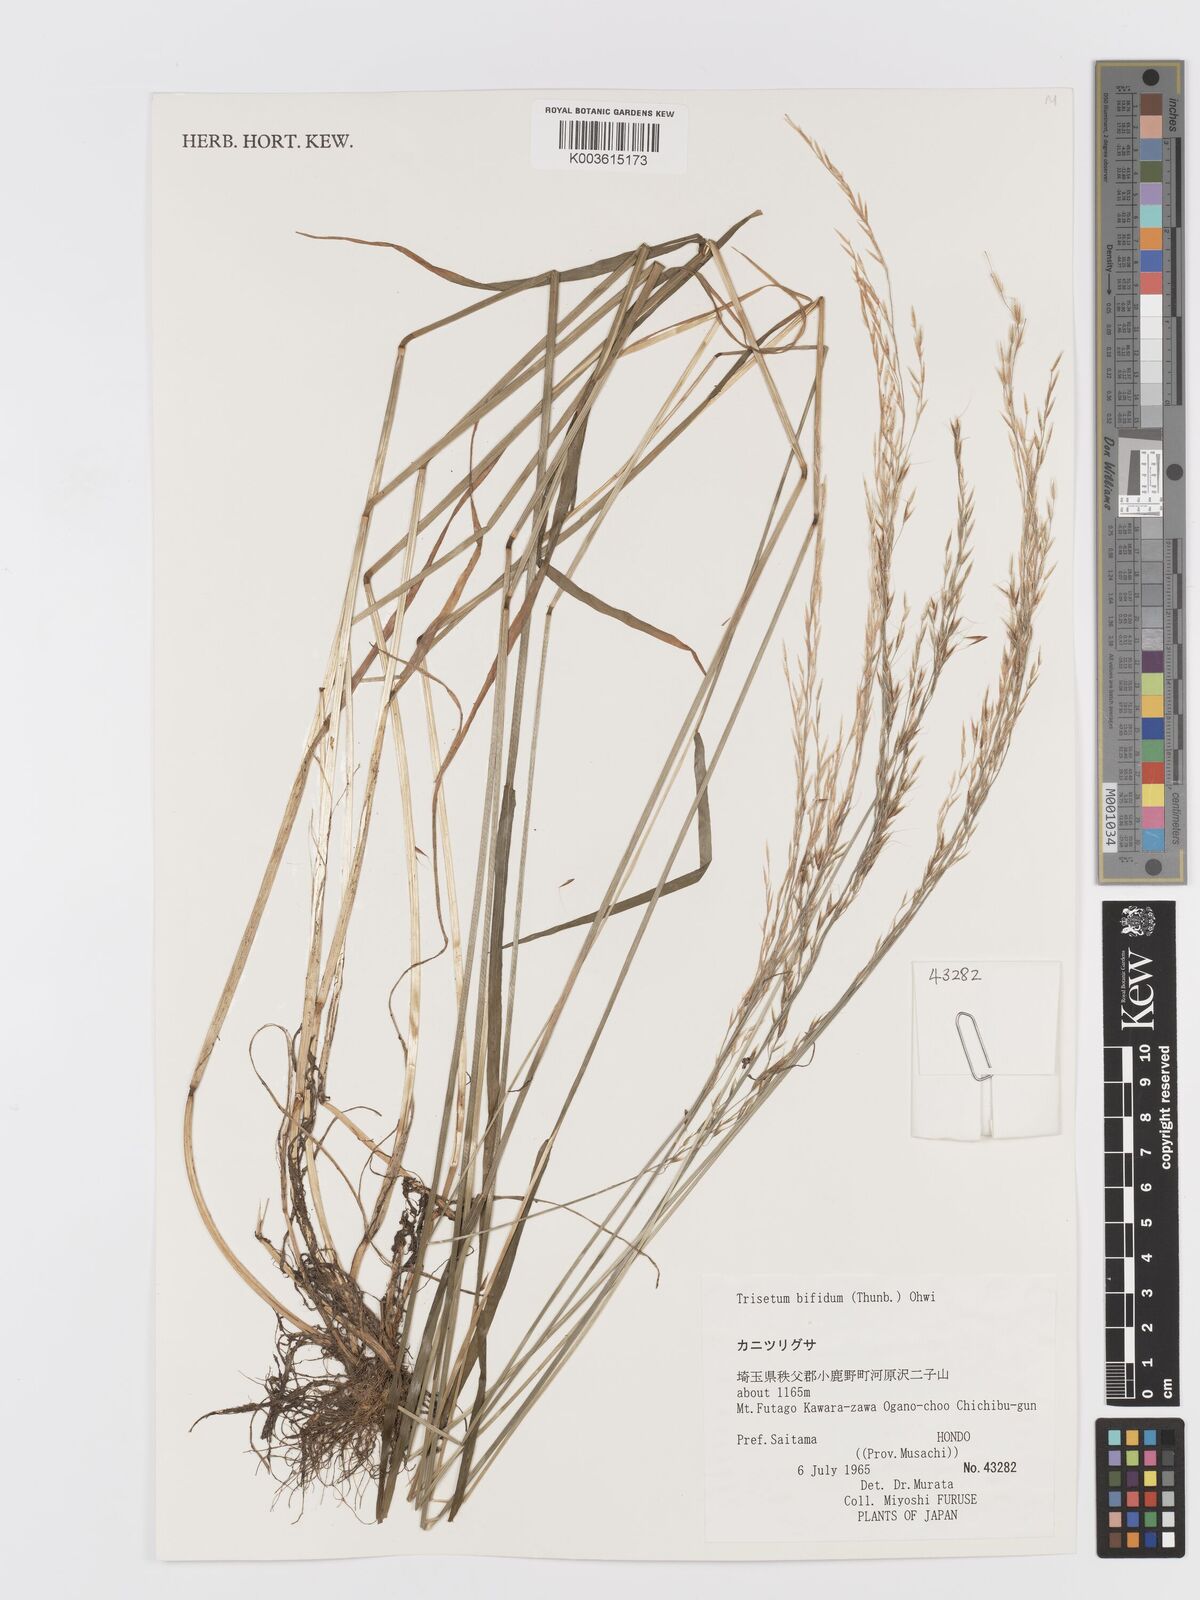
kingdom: Plantae
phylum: Tracheophyta
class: Liliopsida
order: Poales
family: Poaceae
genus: Sibirotrisetum
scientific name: Sibirotrisetum bifidum
